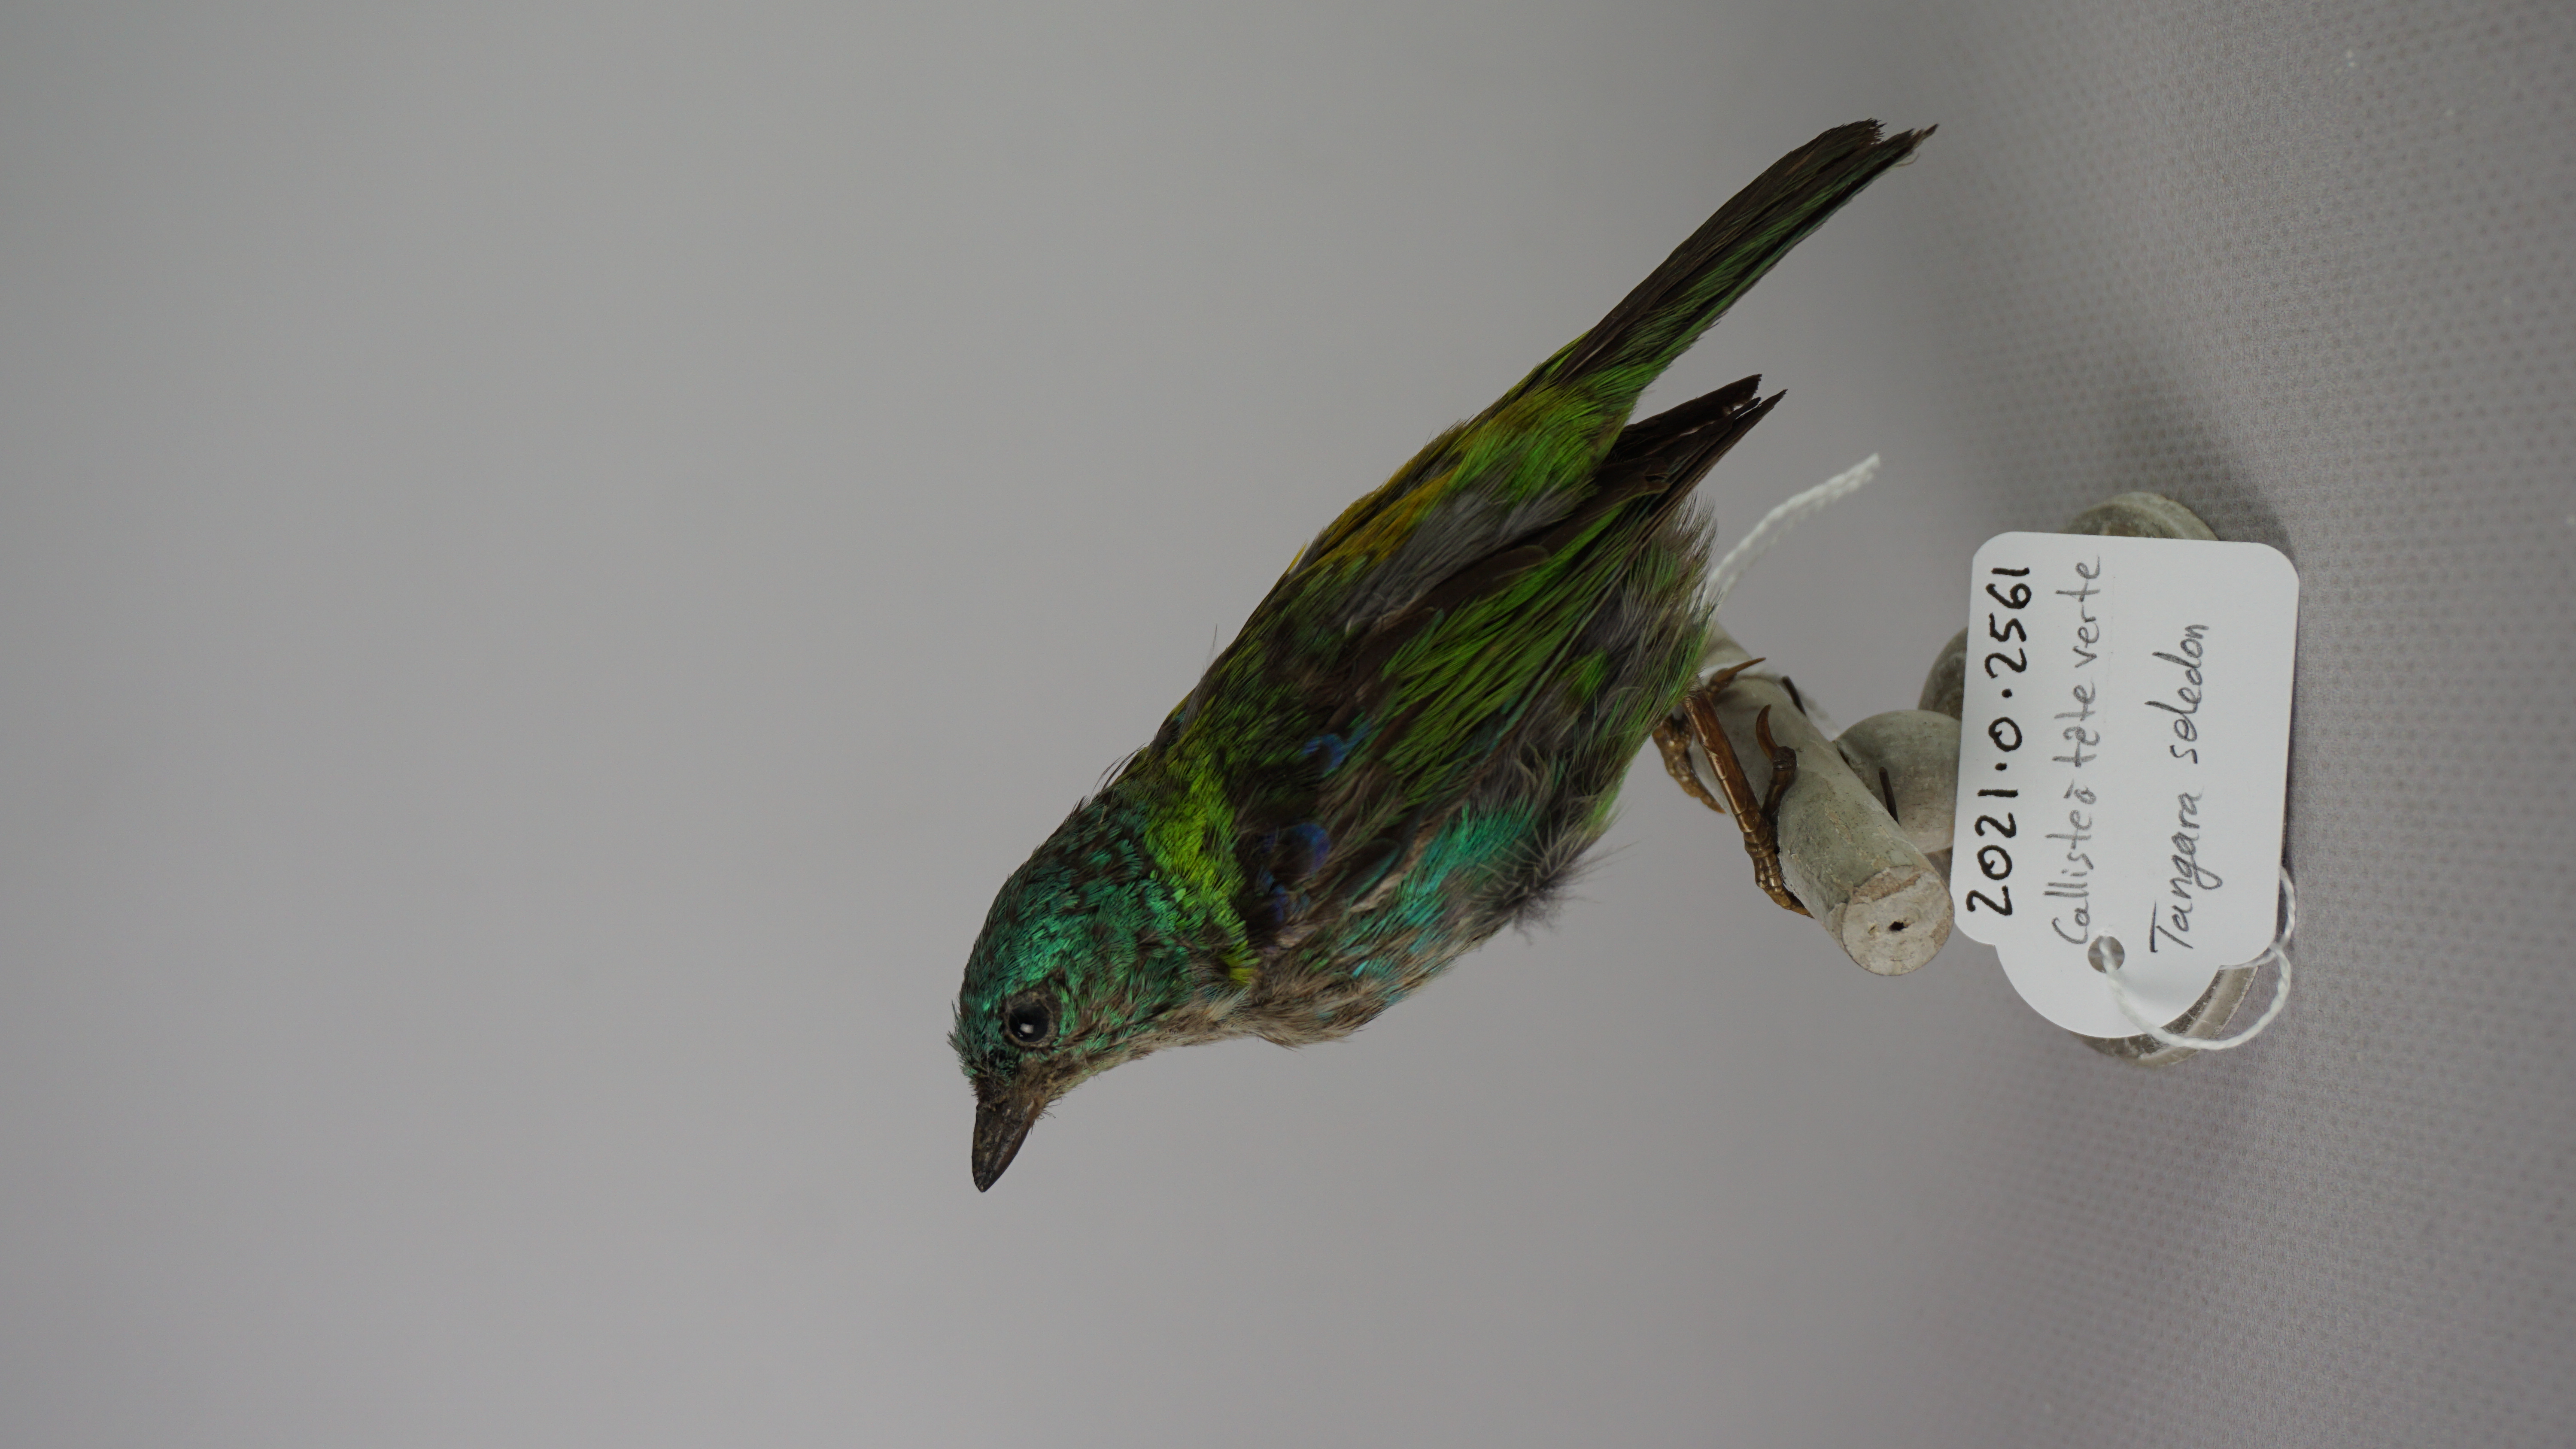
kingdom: Animalia
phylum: Chordata
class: Aves
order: Passeriformes
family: Thraupidae
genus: Tangara
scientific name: Tangara seledon
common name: Green-headed tanager
